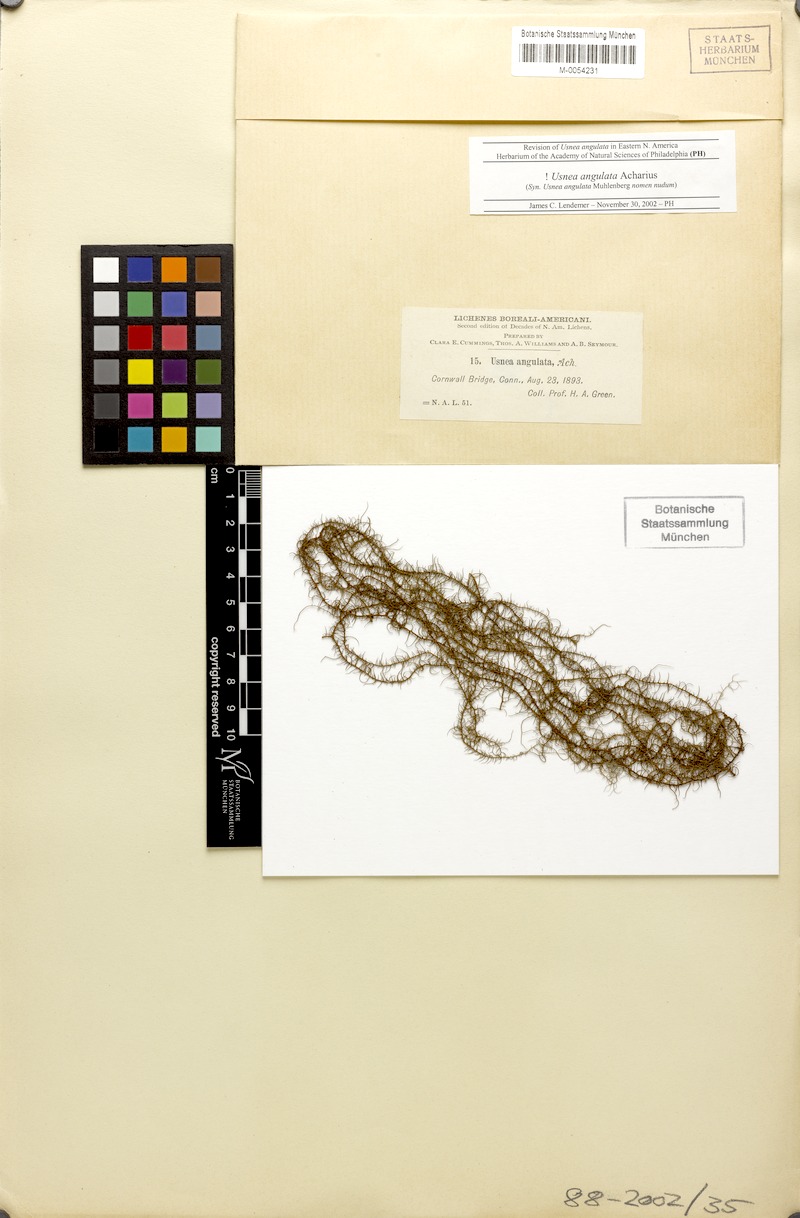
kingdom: Fungi
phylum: Ascomycota
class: Lecanoromycetes
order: Lecanorales
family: Parmeliaceae
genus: Usnea
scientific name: Usnea angulata
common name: Old-man’s beard lichen
